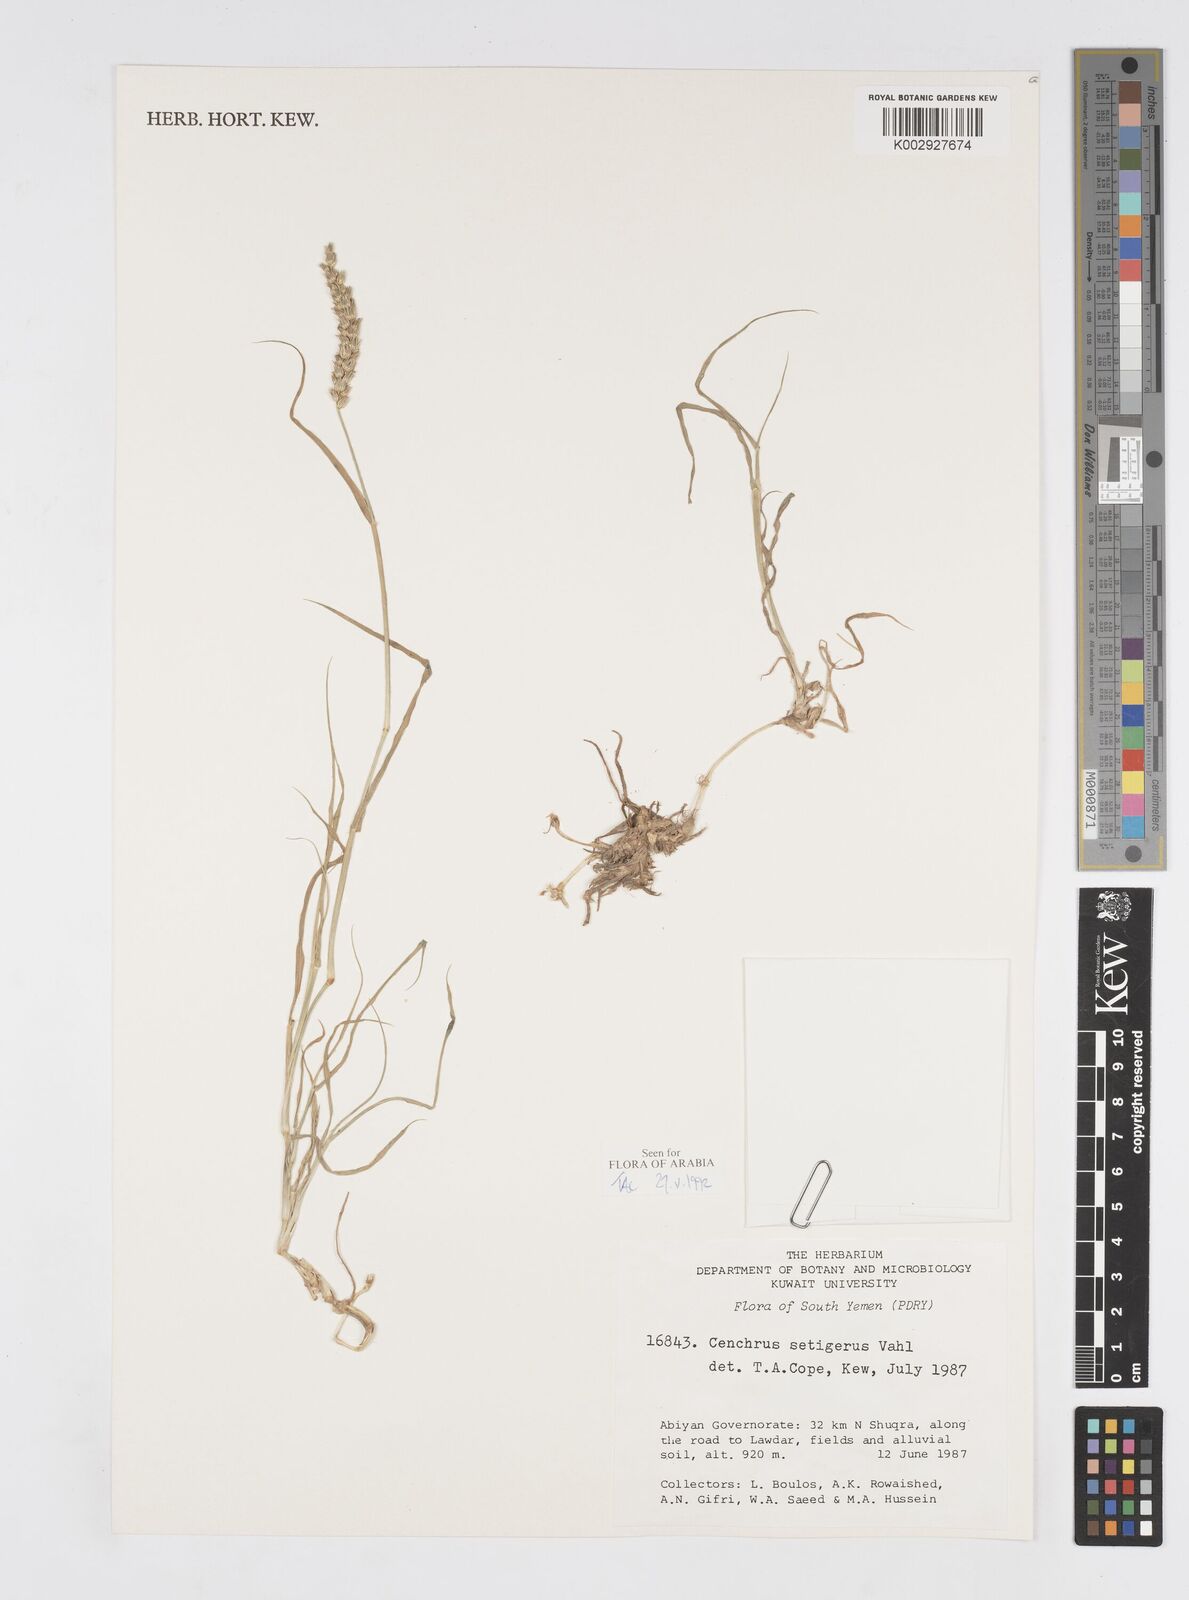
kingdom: Plantae
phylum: Tracheophyta
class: Liliopsida
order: Poales
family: Poaceae
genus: Cenchrus
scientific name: Cenchrus setigerus
